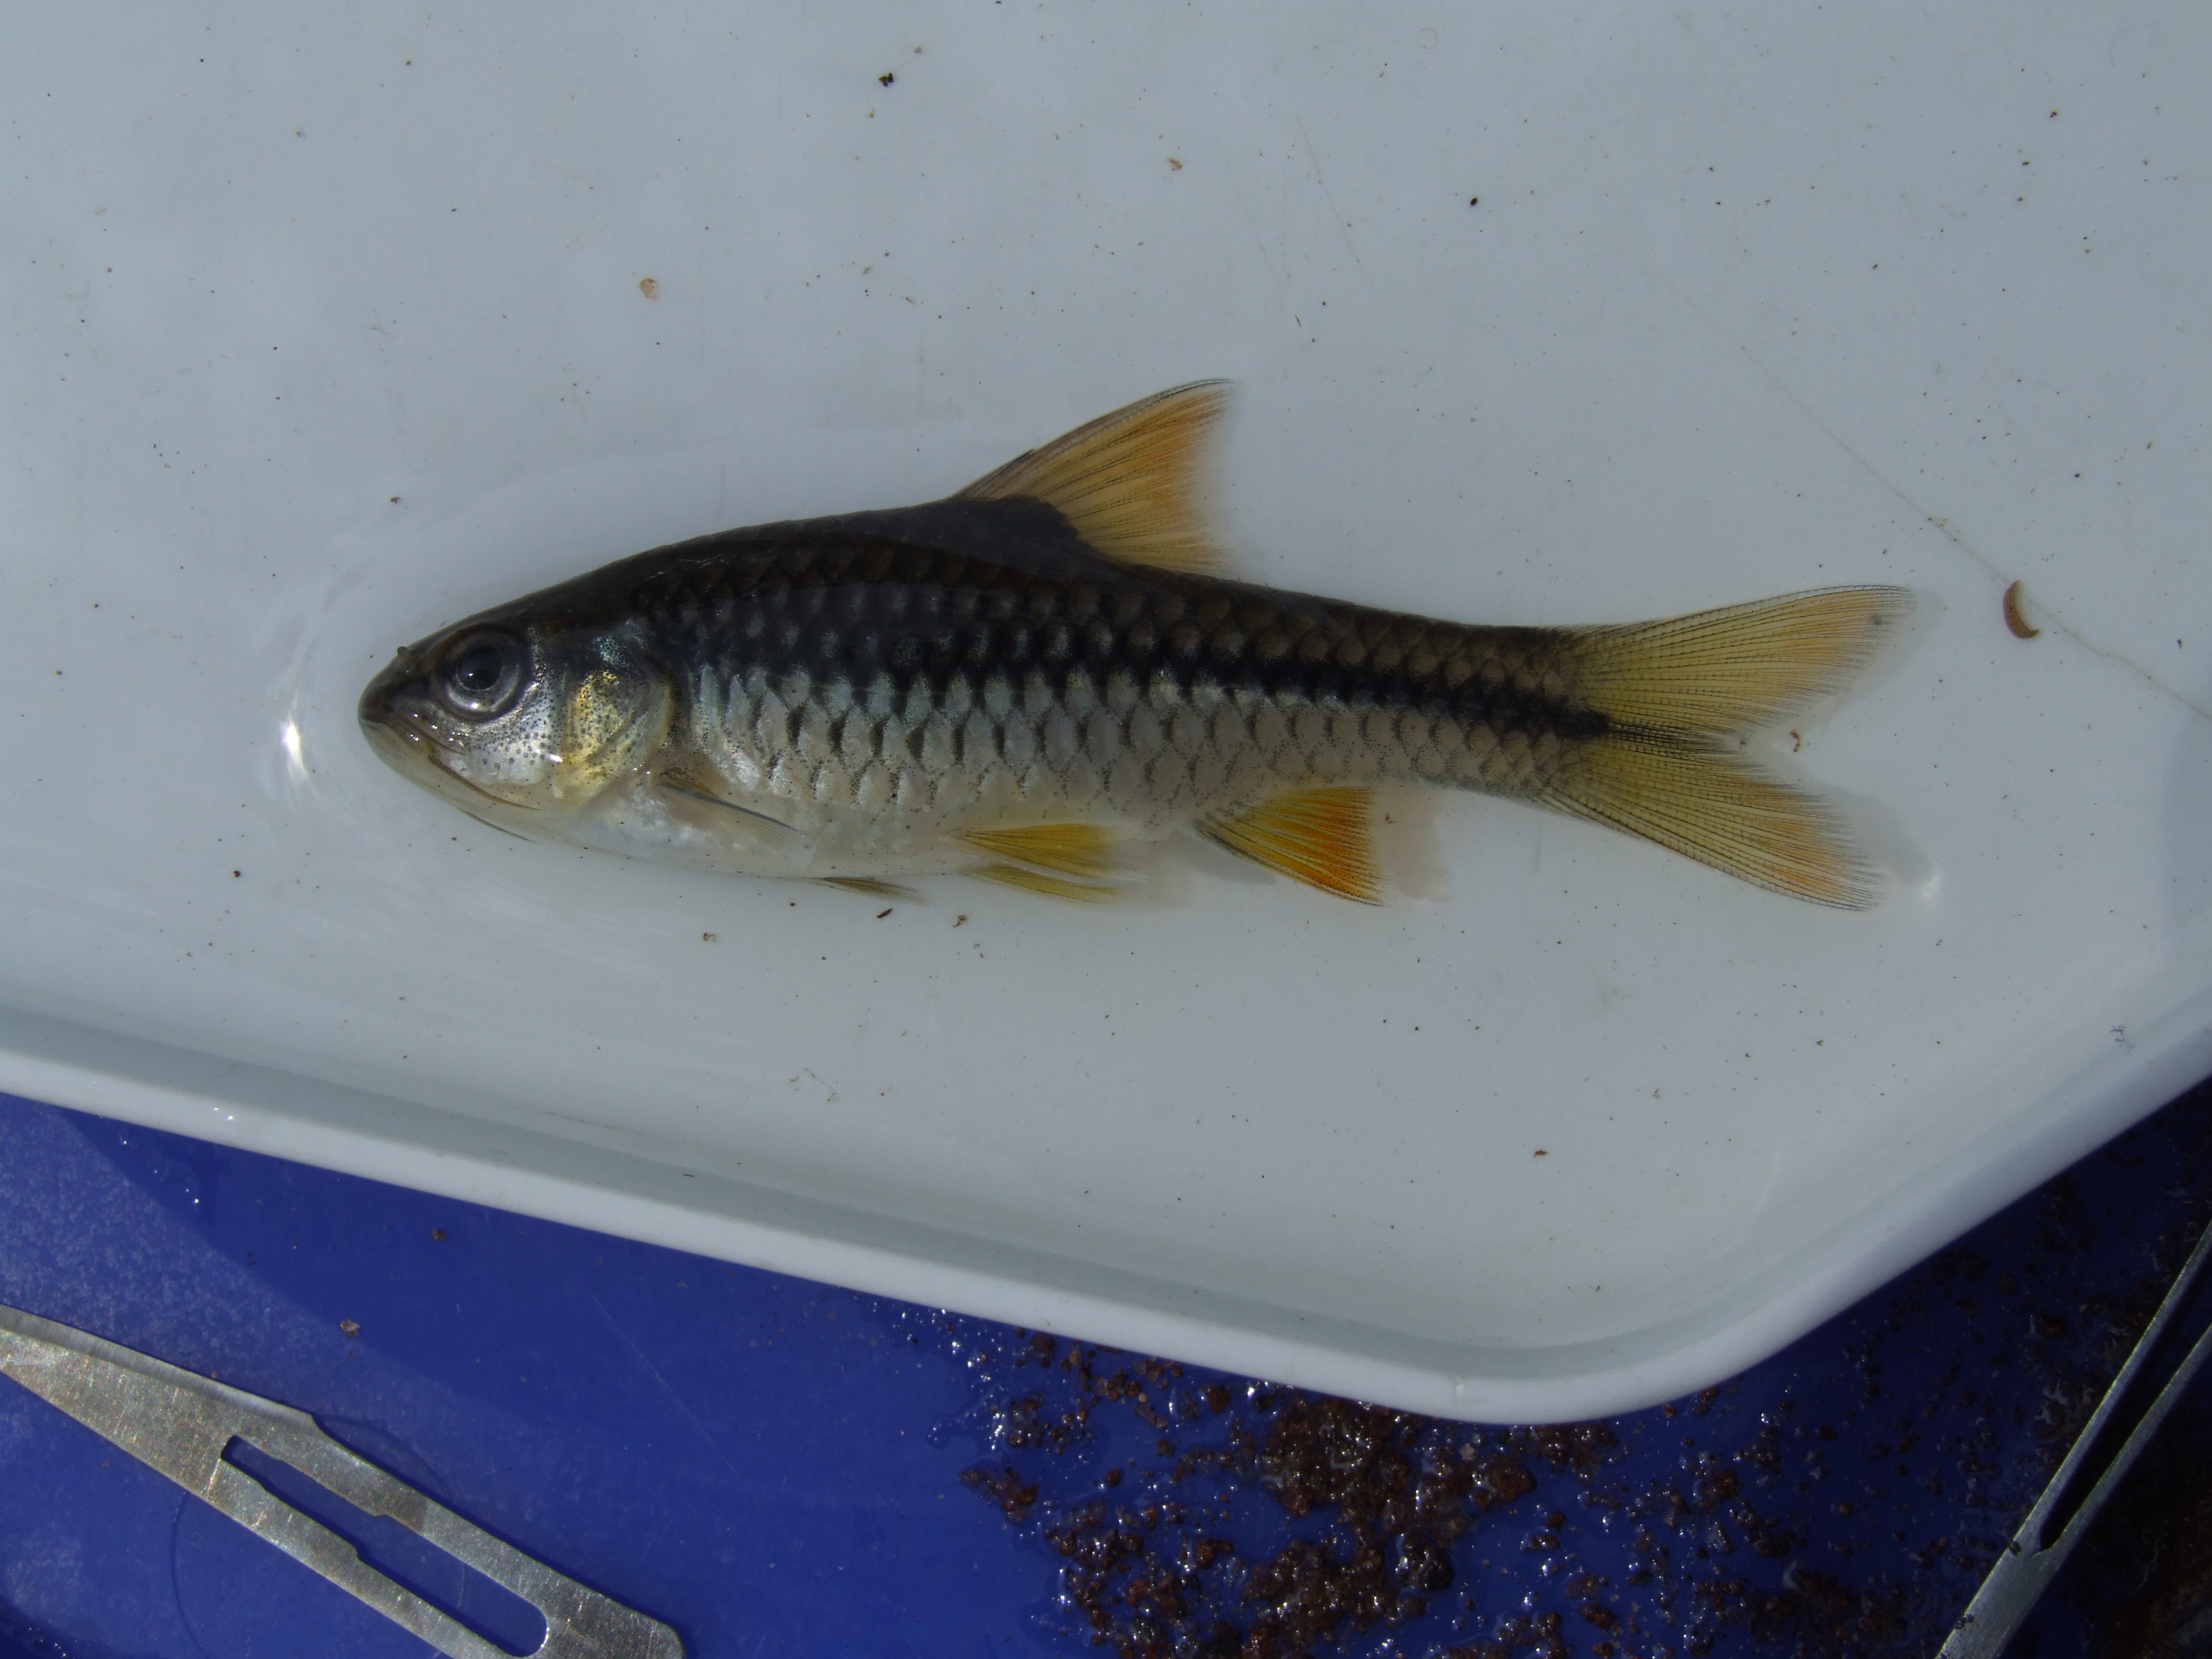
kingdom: Animalia
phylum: Chordata
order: Cypriniformes
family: Cyprinidae
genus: Enteromius
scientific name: Enteromius miolepis
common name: Zigzag barb
